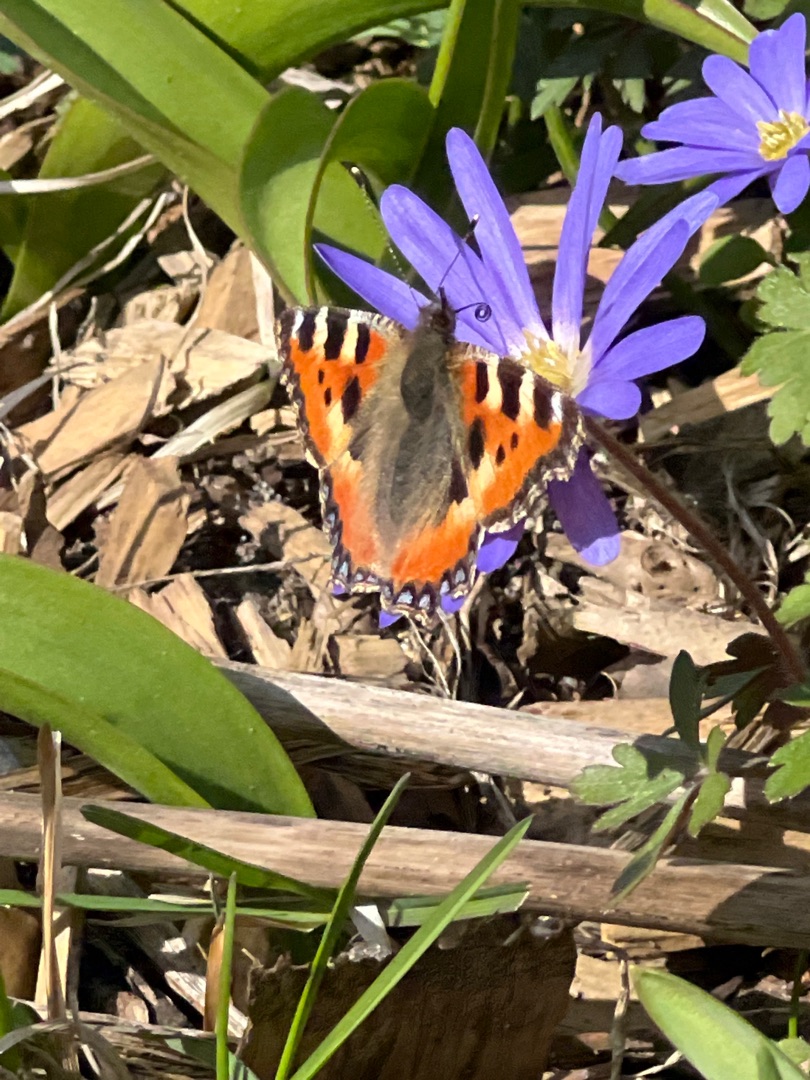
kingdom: Animalia
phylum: Arthropoda
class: Insecta
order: Lepidoptera
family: Nymphalidae
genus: Aglais
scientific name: Aglais urticae
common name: Nældens takvinge
